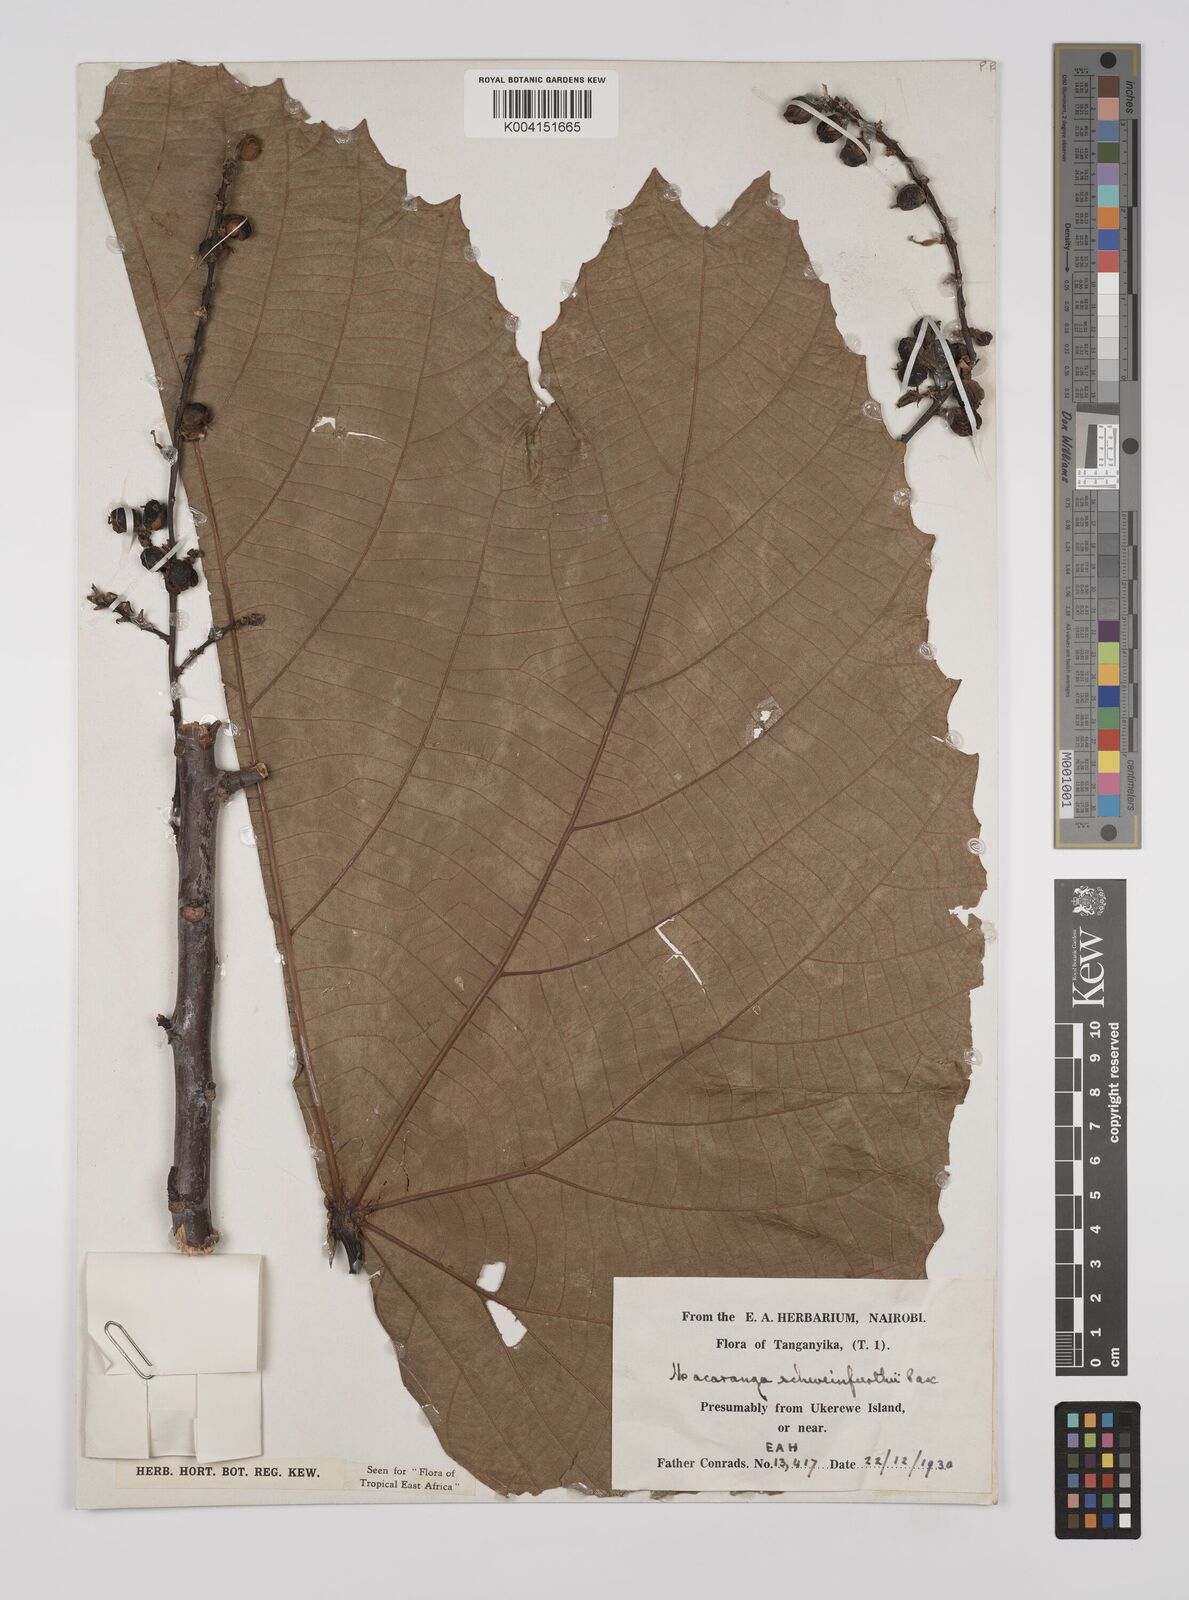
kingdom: Plantae
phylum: Tracheophyta
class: Magnoliopsida
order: Malpighiales
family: Euphorbiaceae
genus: Macaranga
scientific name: Macaranga schweinfurthii
